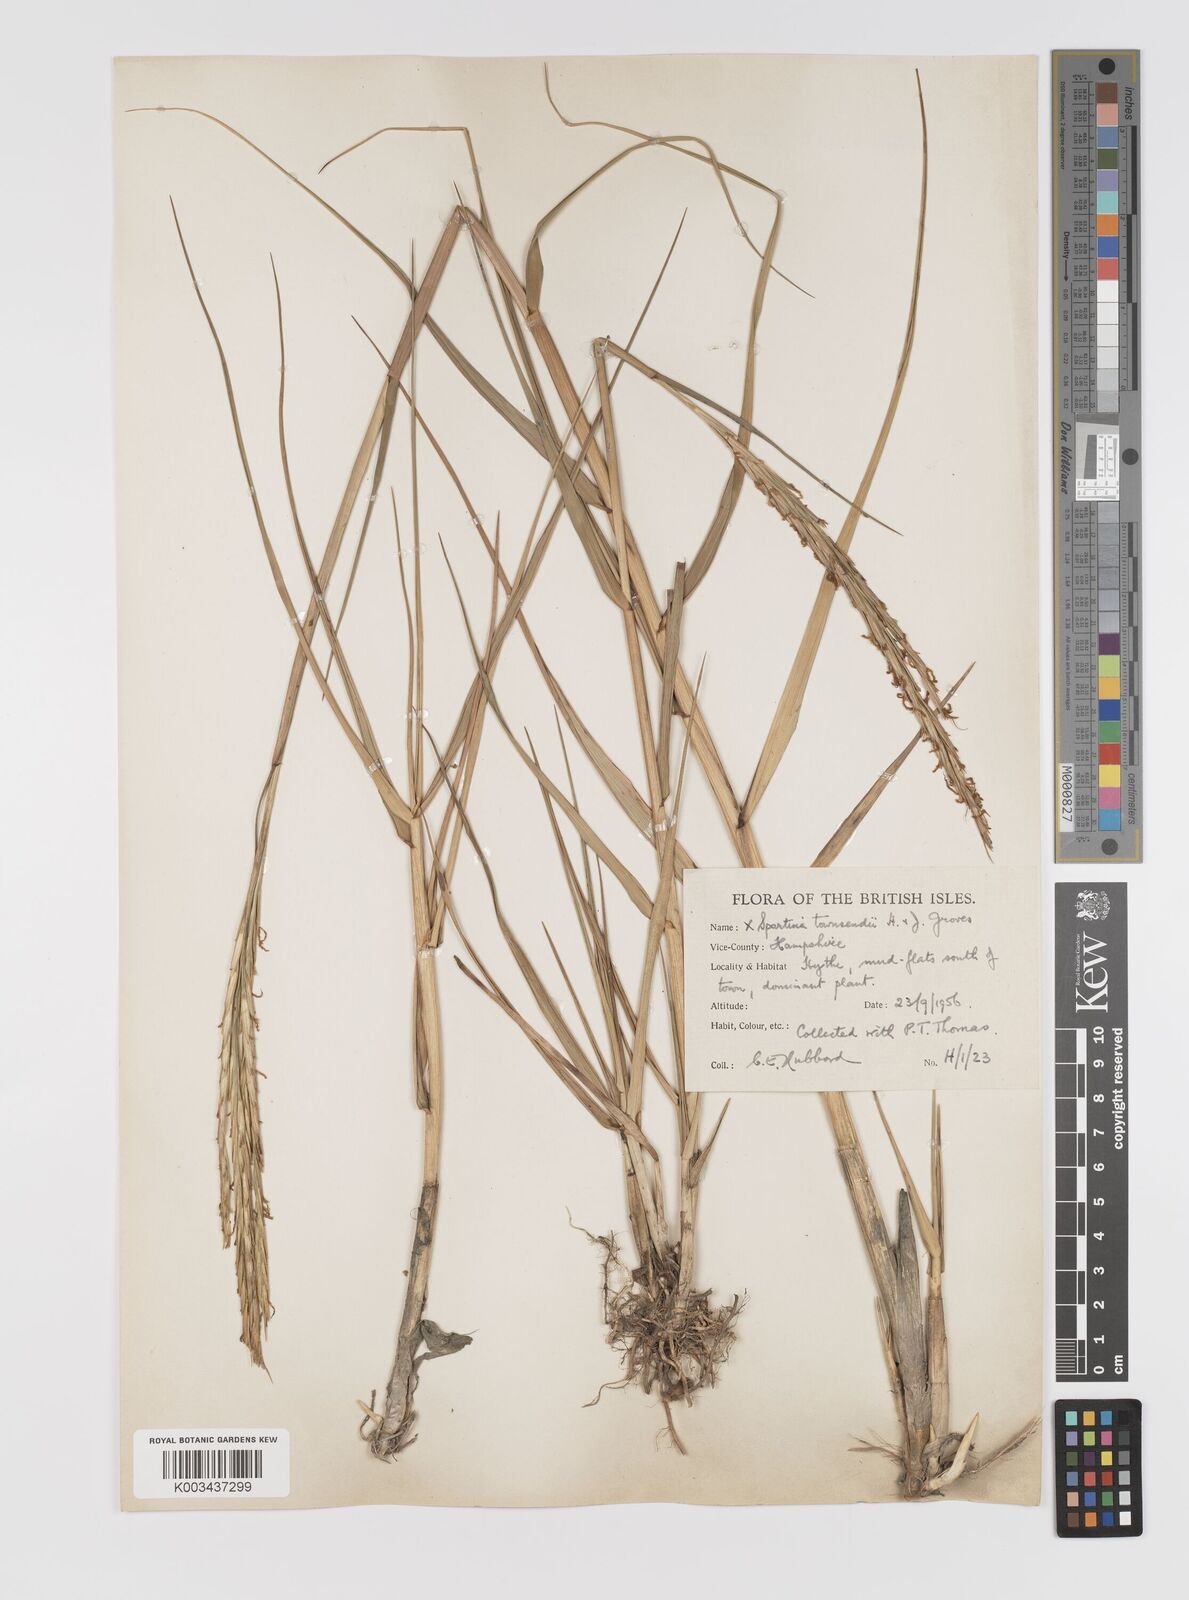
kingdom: Plantae
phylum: Tracheophyta
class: Liliopsida
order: Poales
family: Poaceae
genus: Sporobolus
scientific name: Sporobolus townsendii
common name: Townsend's cordgrass
